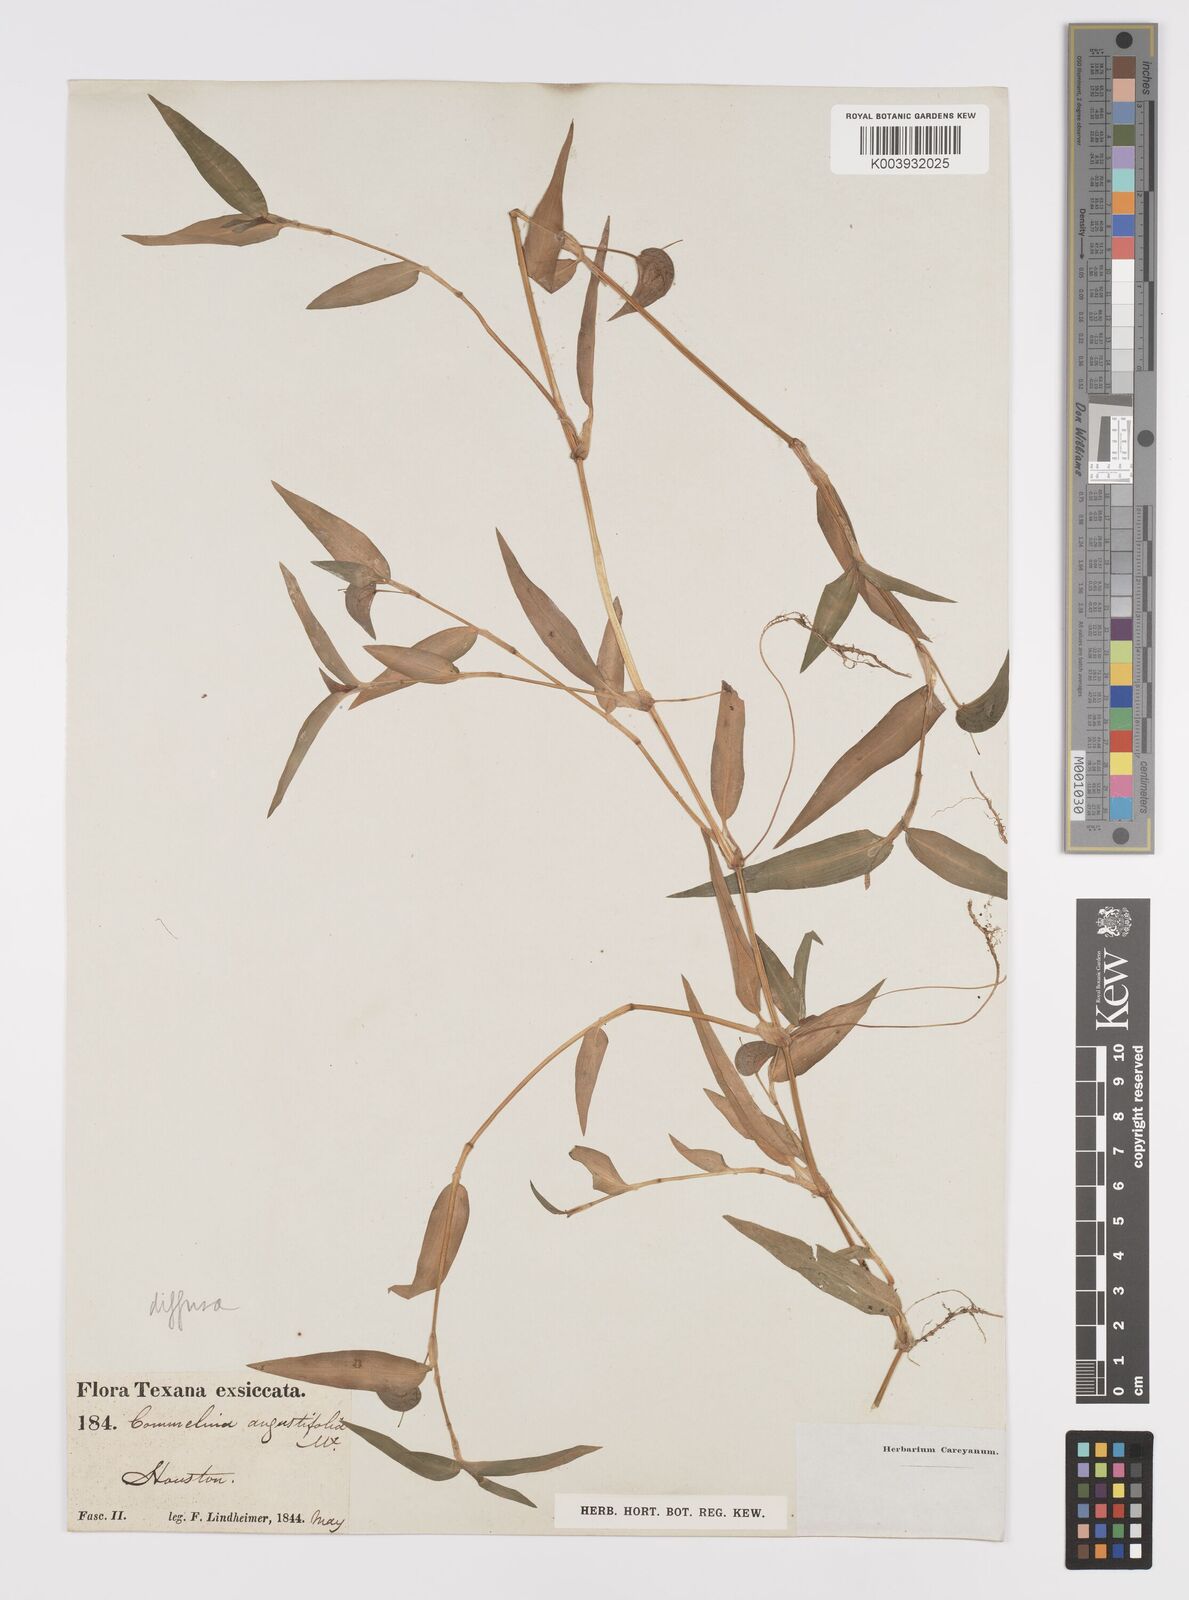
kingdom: Plantae
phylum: Tracheophyta
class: Liliopsida
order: Commelinales
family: Commelinaceae
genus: Commelina
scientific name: Commelina diffusa
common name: Climbing dayflower
